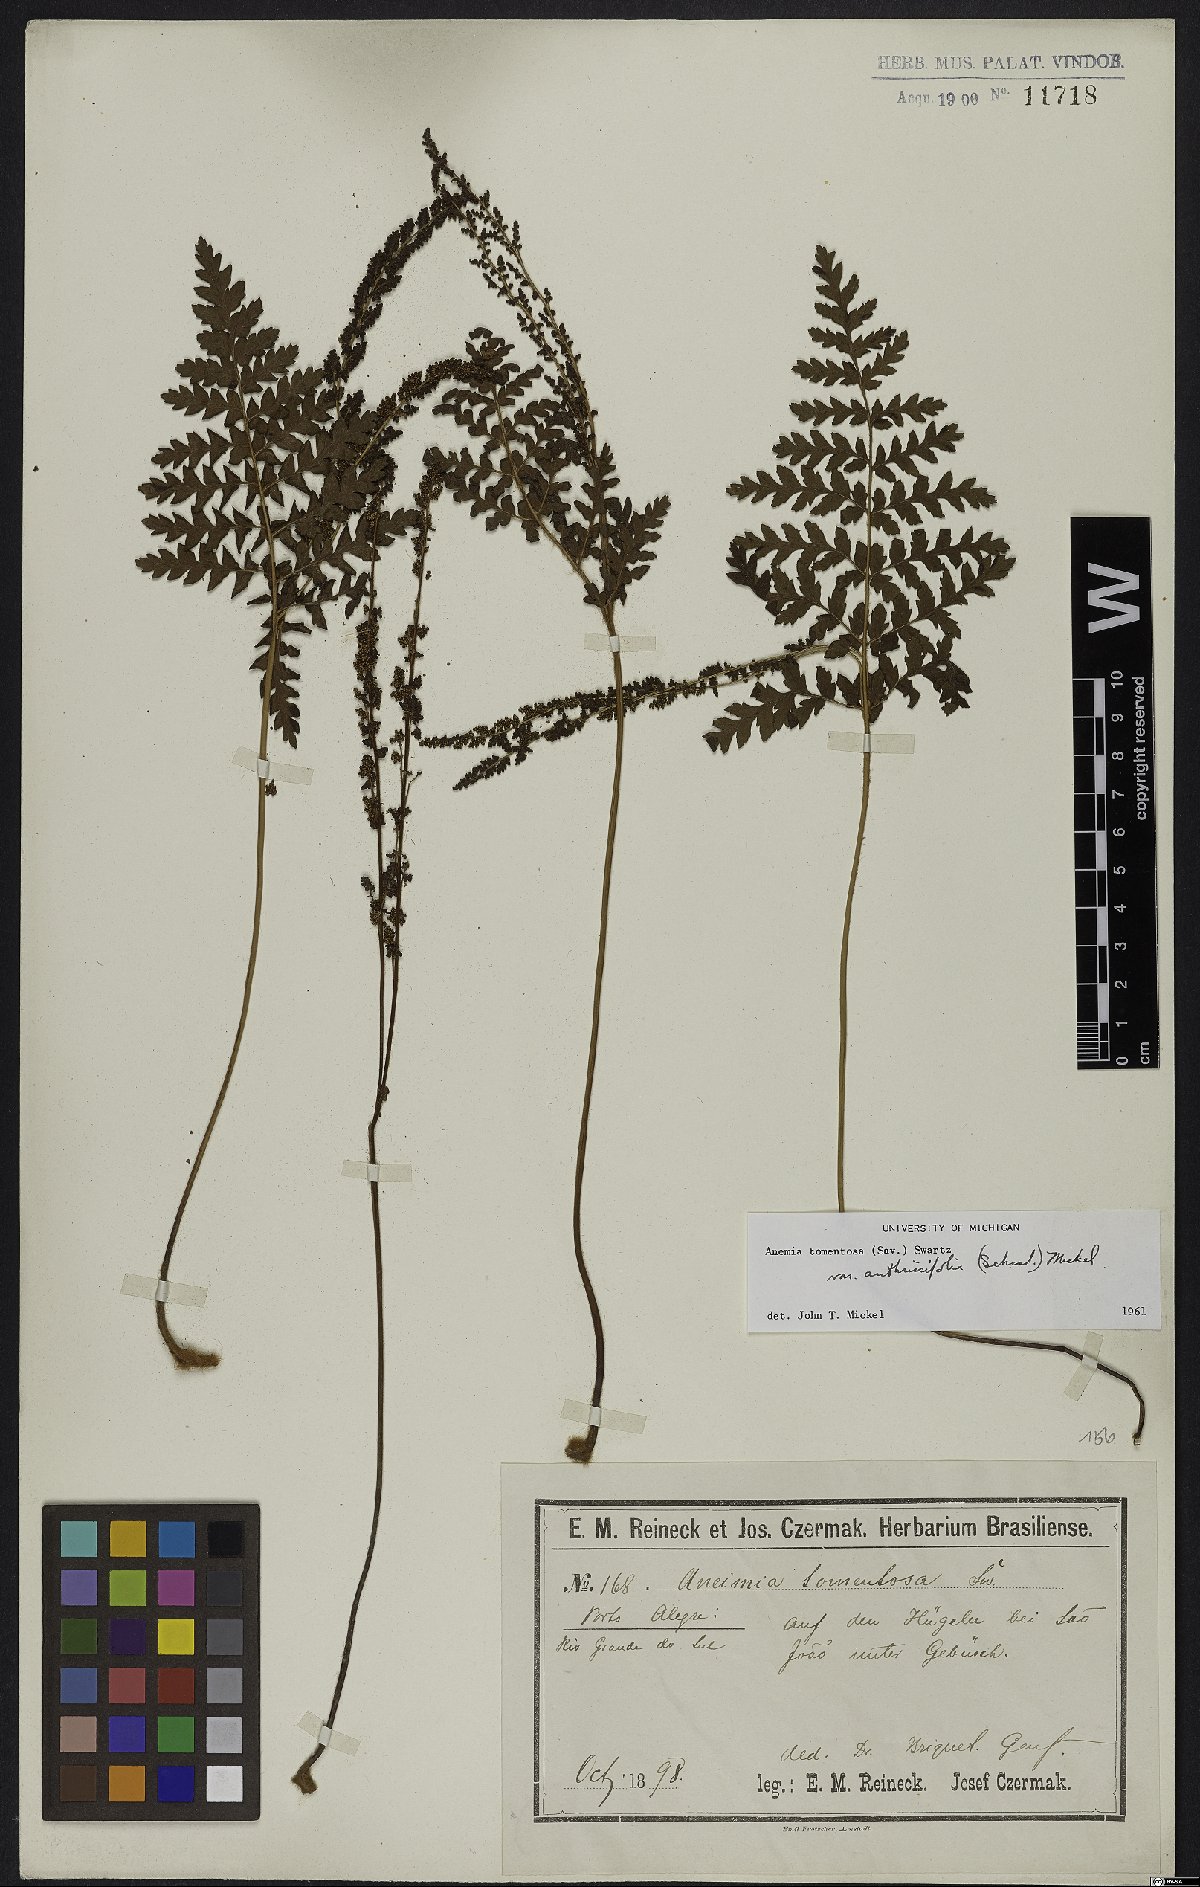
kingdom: Plantae
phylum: Tracheophyta
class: Polypodiopsida
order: Schizaeales
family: Anemiaceae
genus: Anemia
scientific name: Anemia tomentosa
